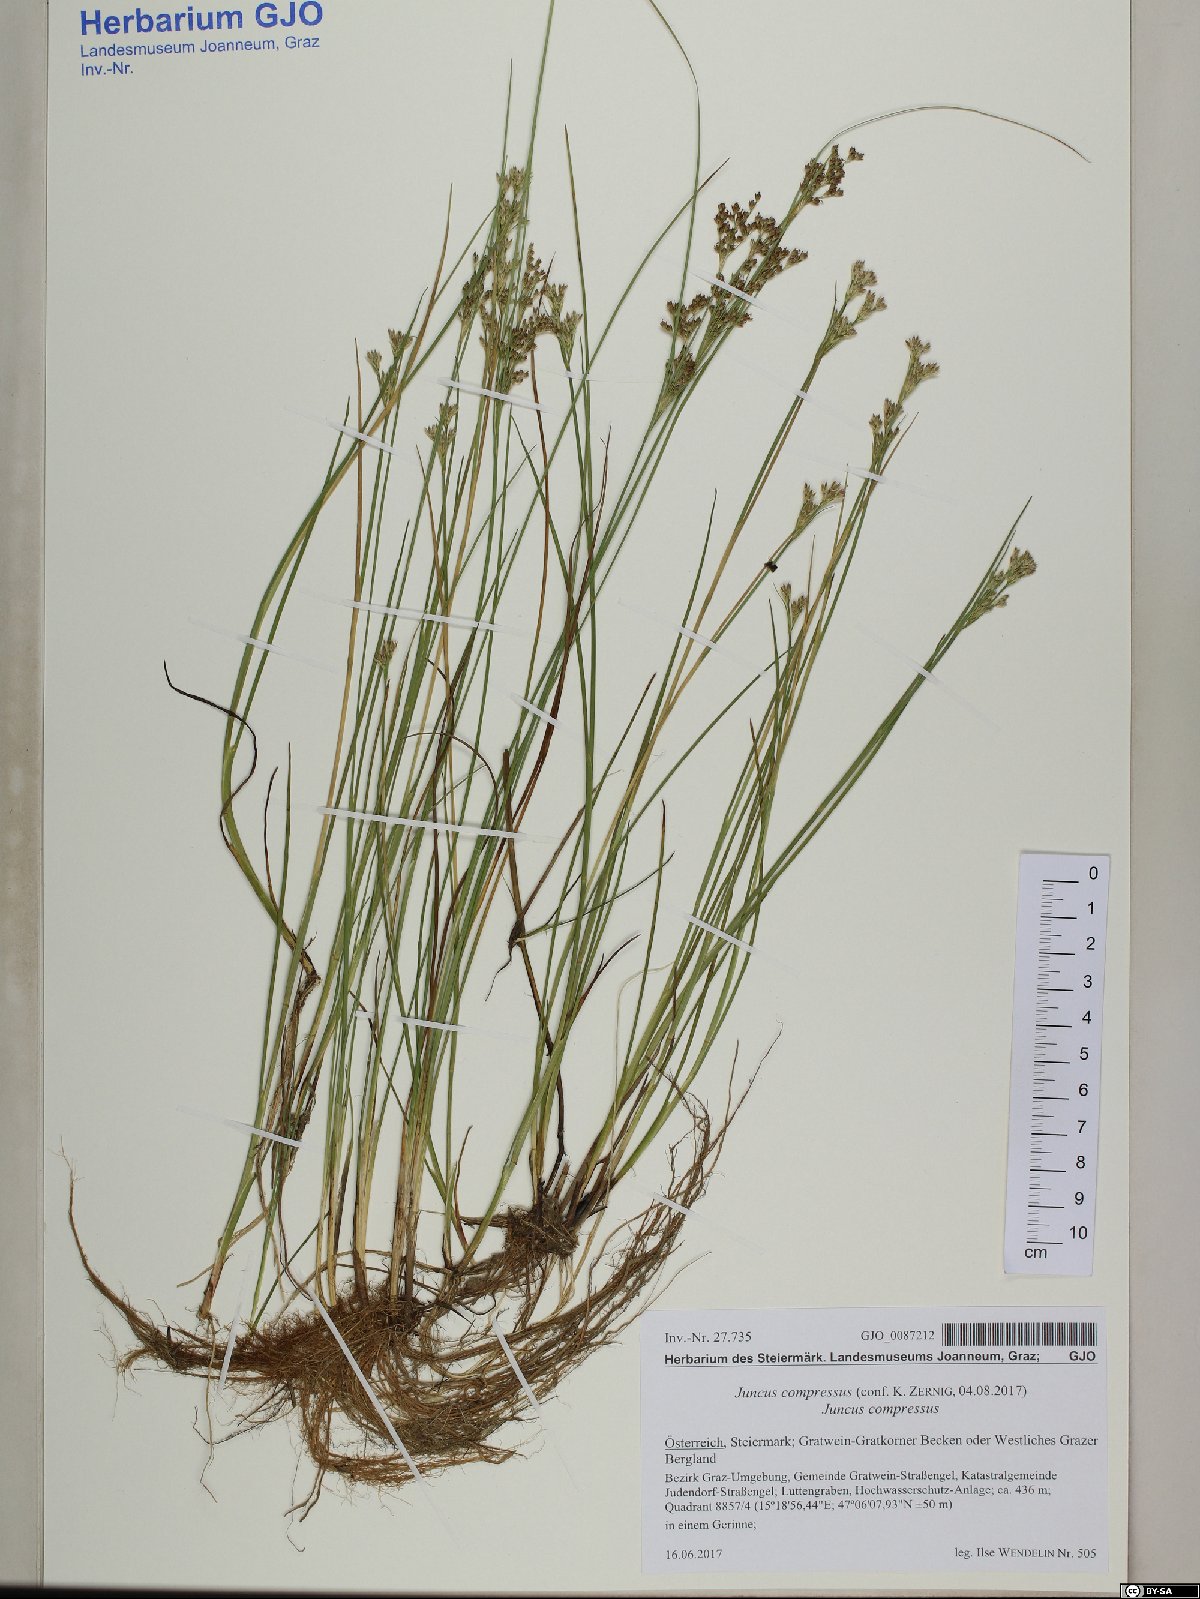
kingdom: Plantae
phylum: Tracheophyta
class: Liliopsida
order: Poales
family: Juncaceae
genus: Juncus
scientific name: Juncus compressus
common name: Round-fruited rush
